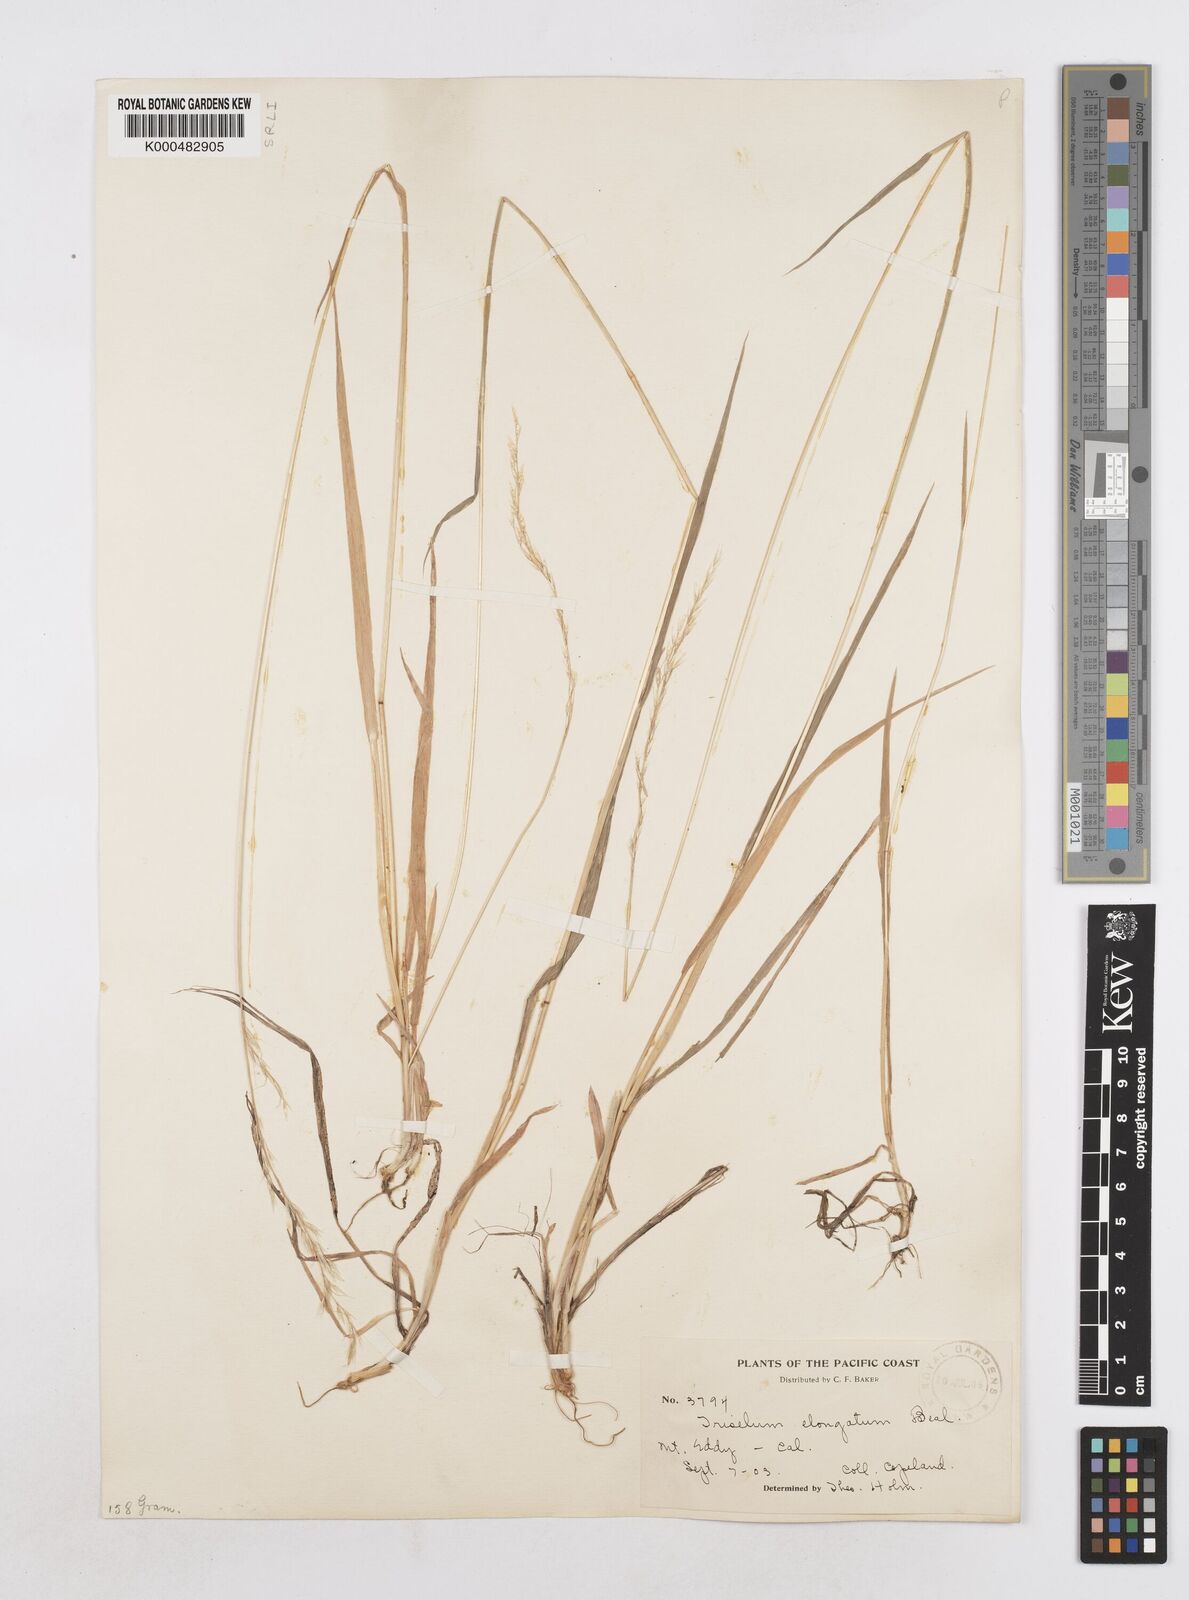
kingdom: Plantae
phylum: Tracheophyta
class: Liliopsida
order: Poales
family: Poaceae
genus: Graphephorum
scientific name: Graphephorum canescens
